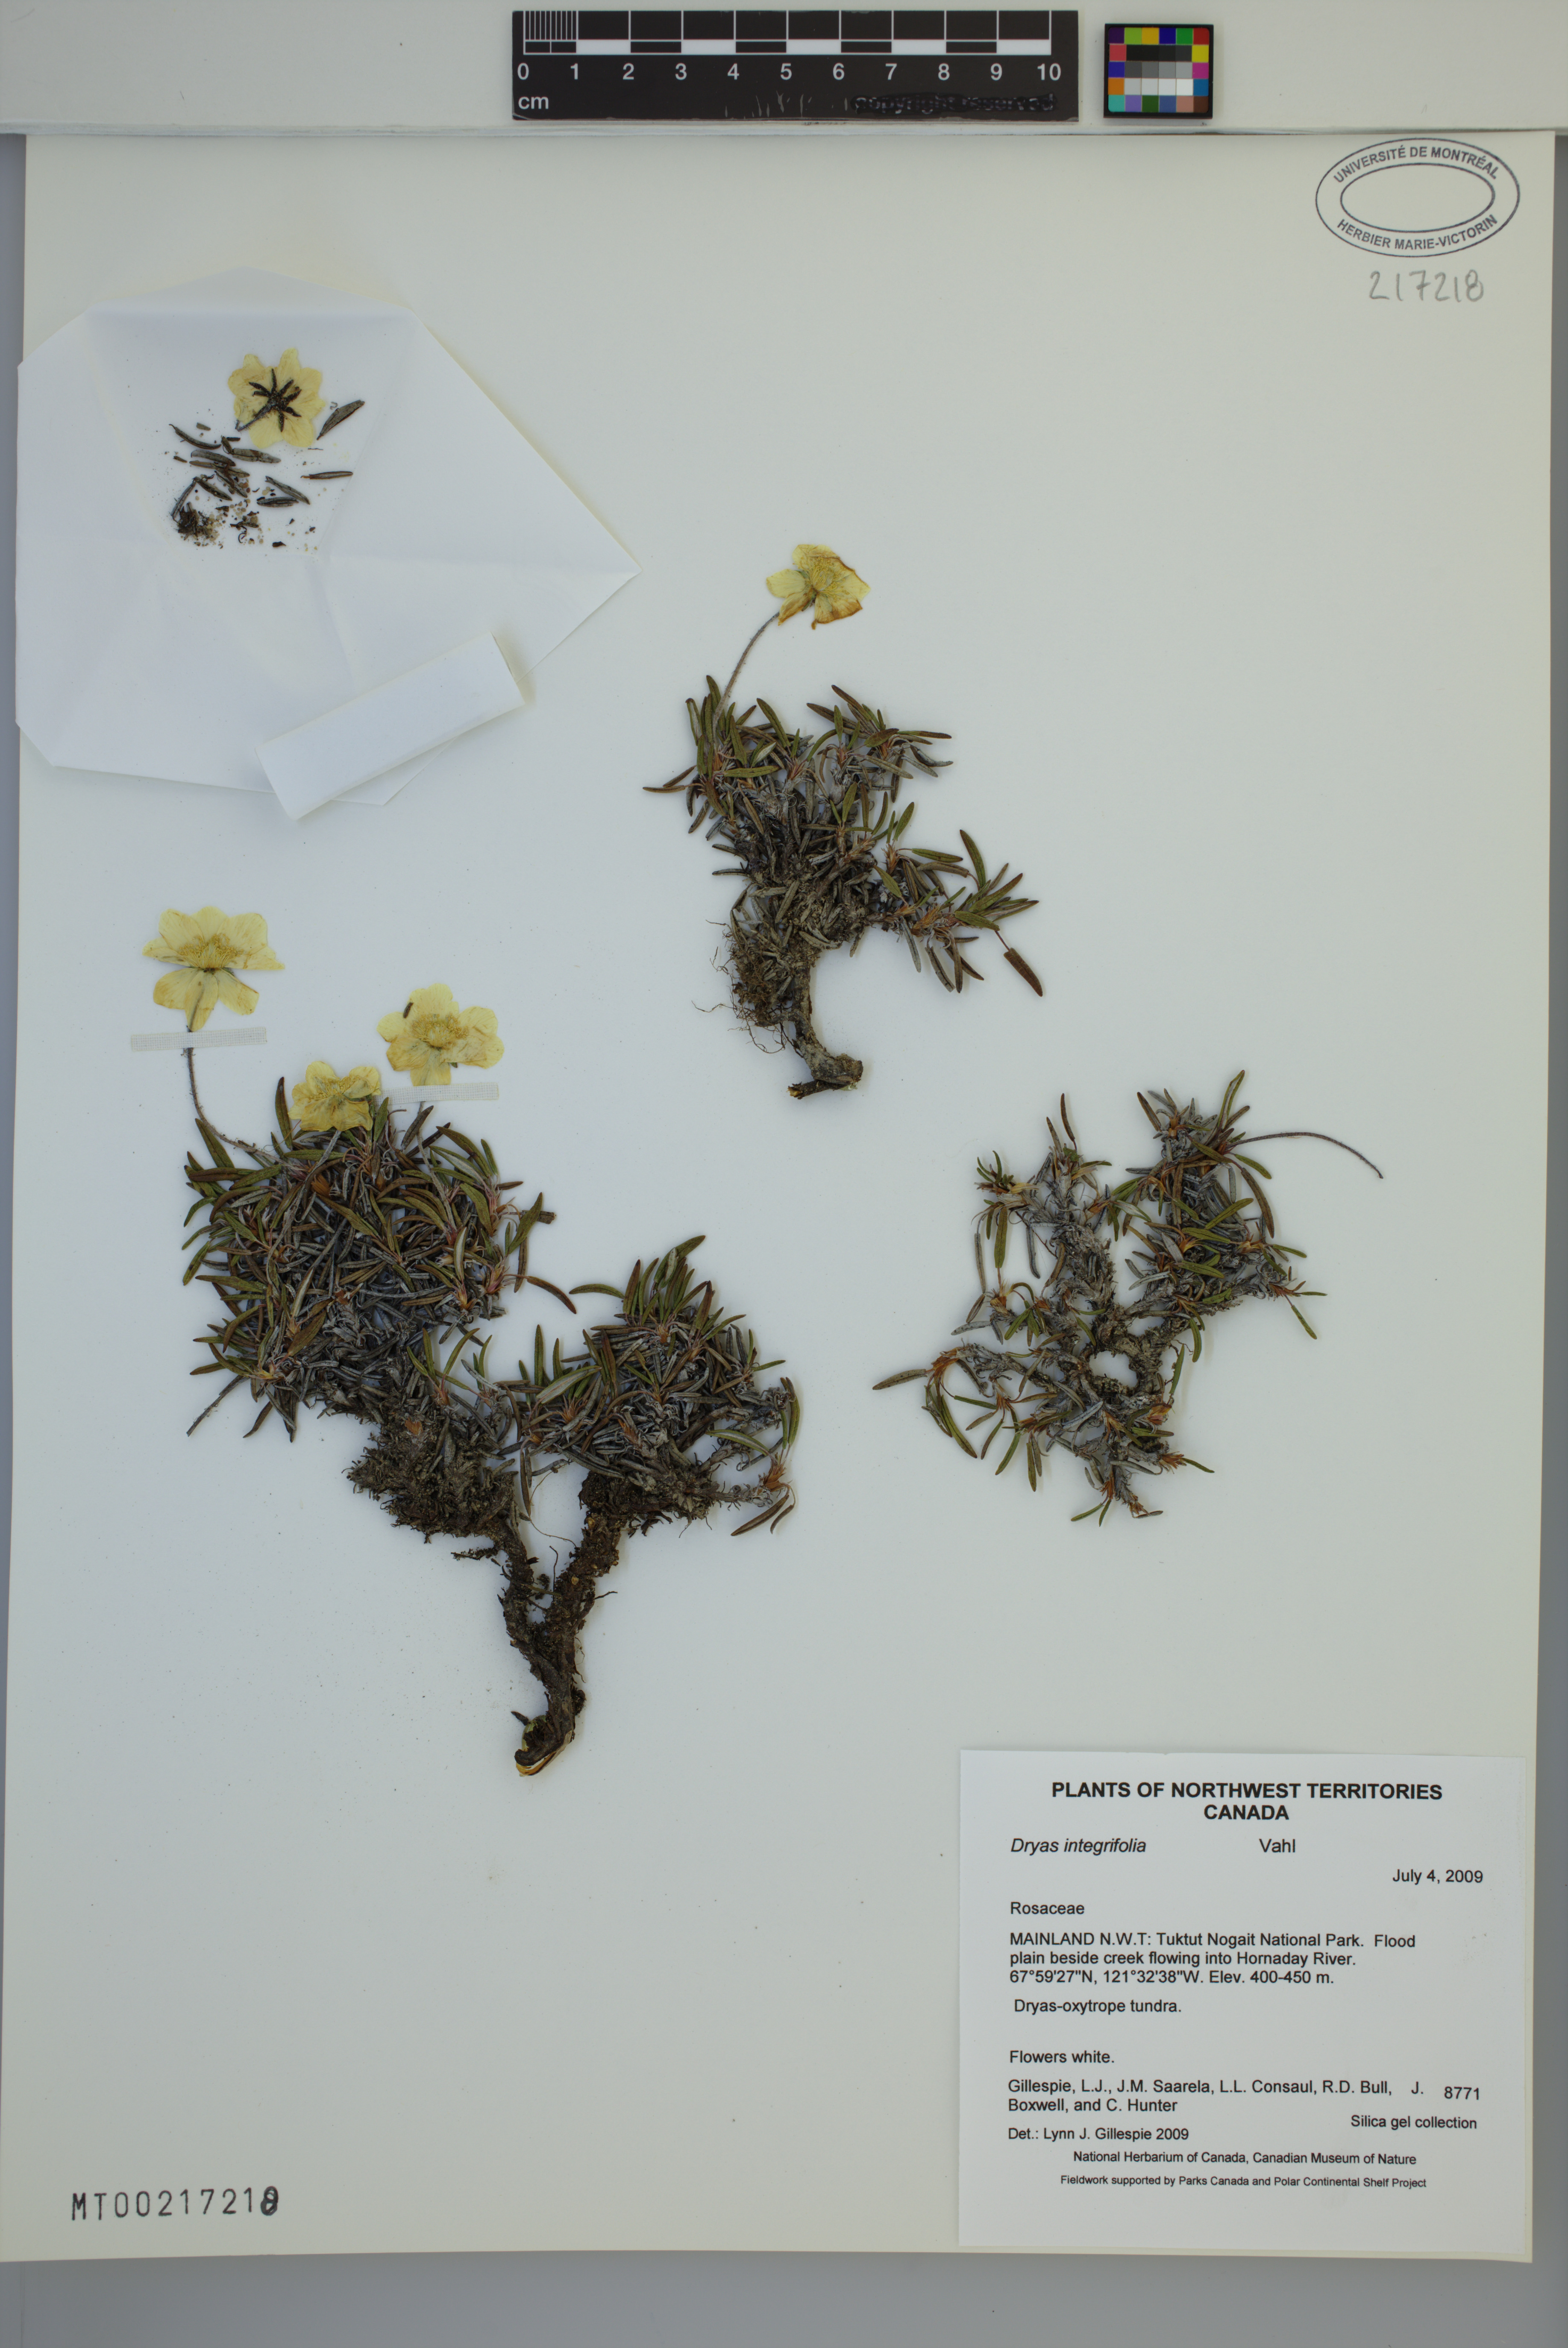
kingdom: Plantae
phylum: Tracheophyta
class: Magnoliopsida
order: Rosales
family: Rosaceae
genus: Dryas
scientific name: Dryas integrifolia
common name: Entire-leaved mountain avens
